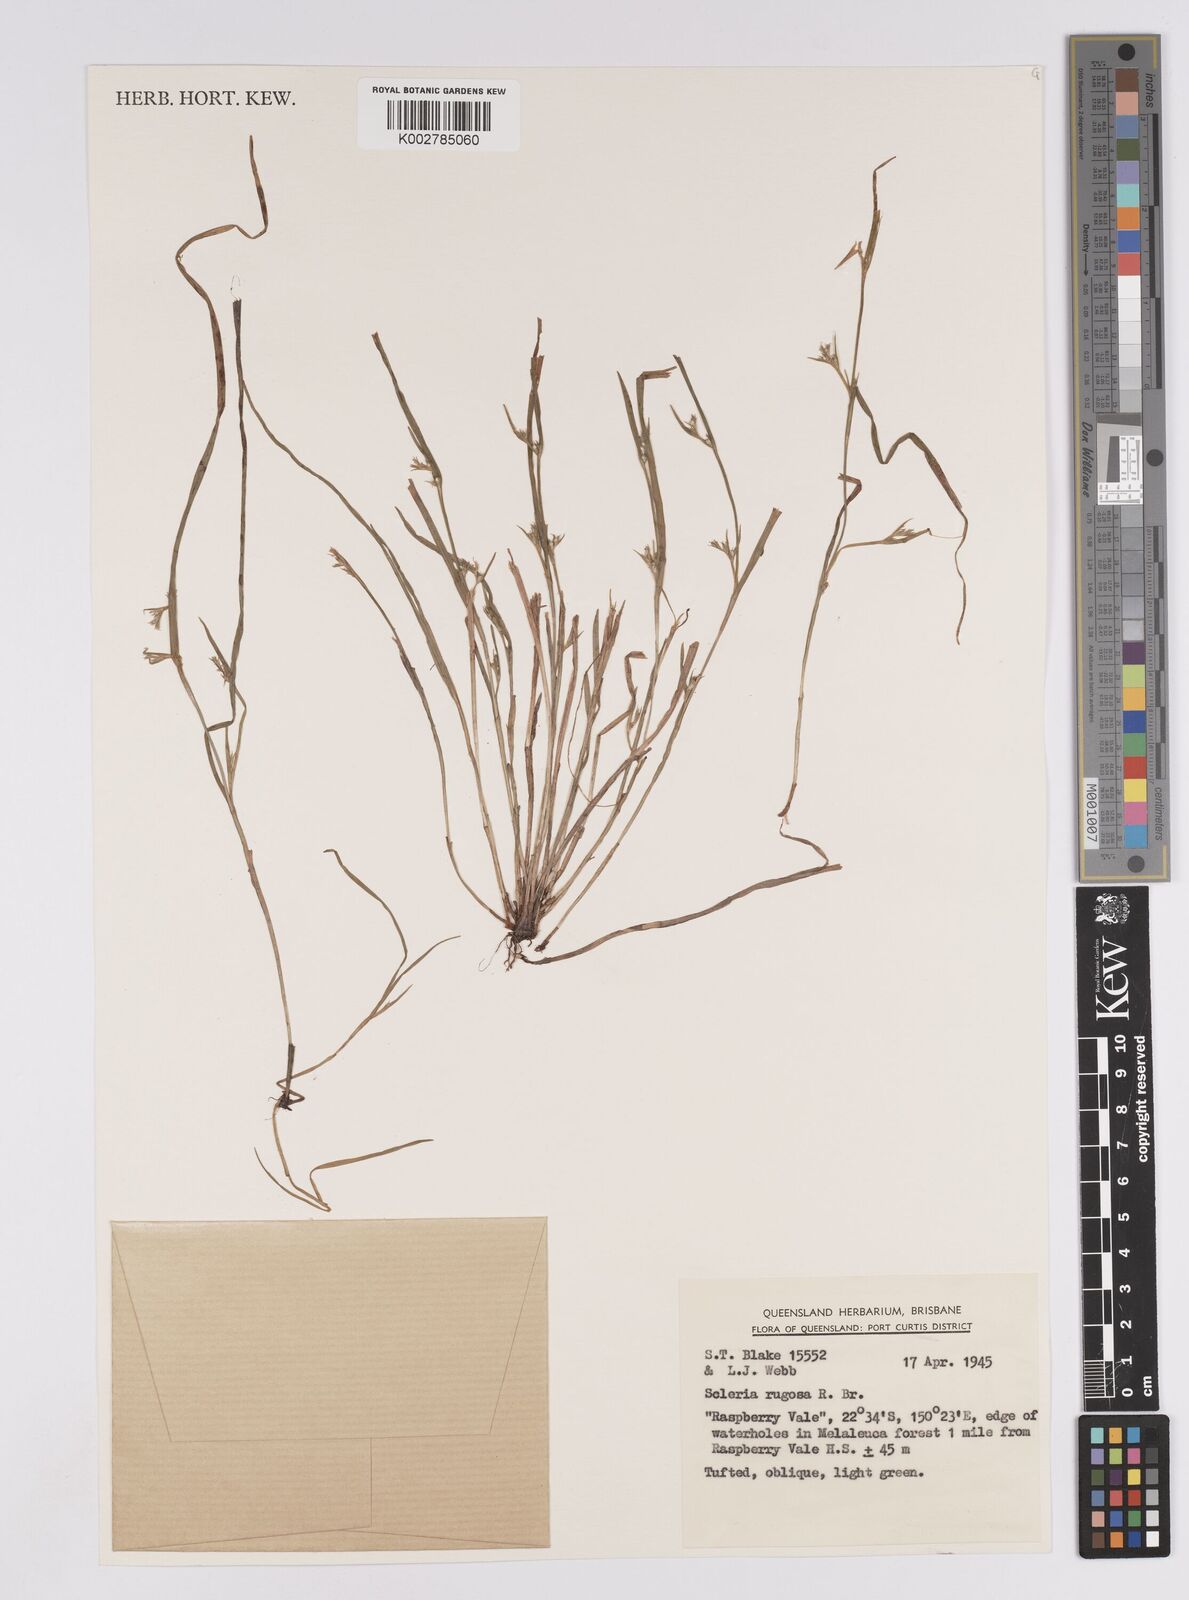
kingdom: Plantae
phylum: Tracheophyta
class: Liliopsida
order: Poales
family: Cyperaceae
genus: Scleria
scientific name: Scleria rugosa
